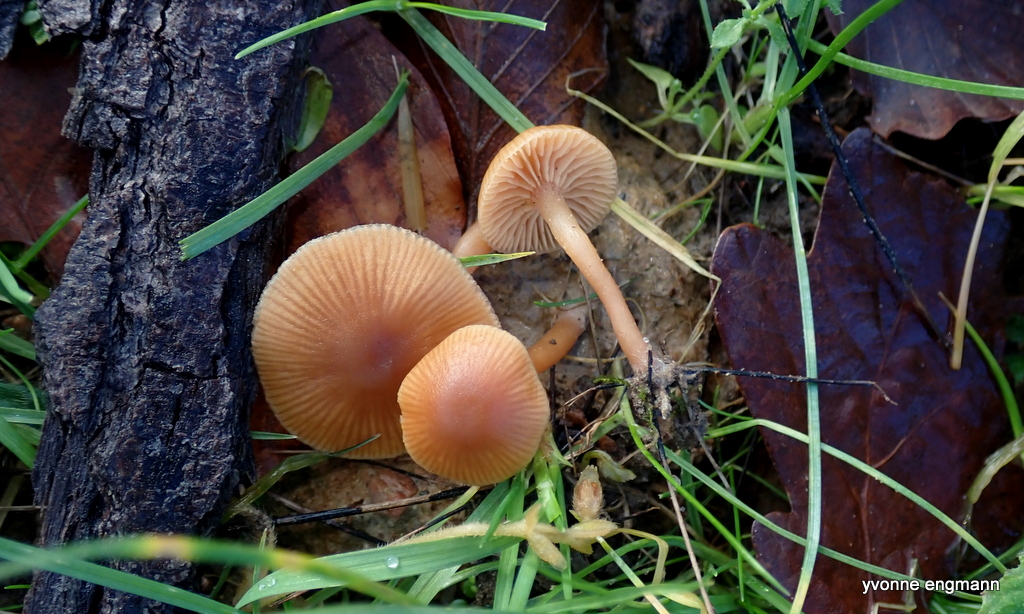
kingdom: Fungi
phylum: Basidiomycota
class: Agaricomycetes
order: Agaricales
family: Tubariaceae
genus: Tubaria
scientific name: Tubaria furfuracea
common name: kliddet fnughat
